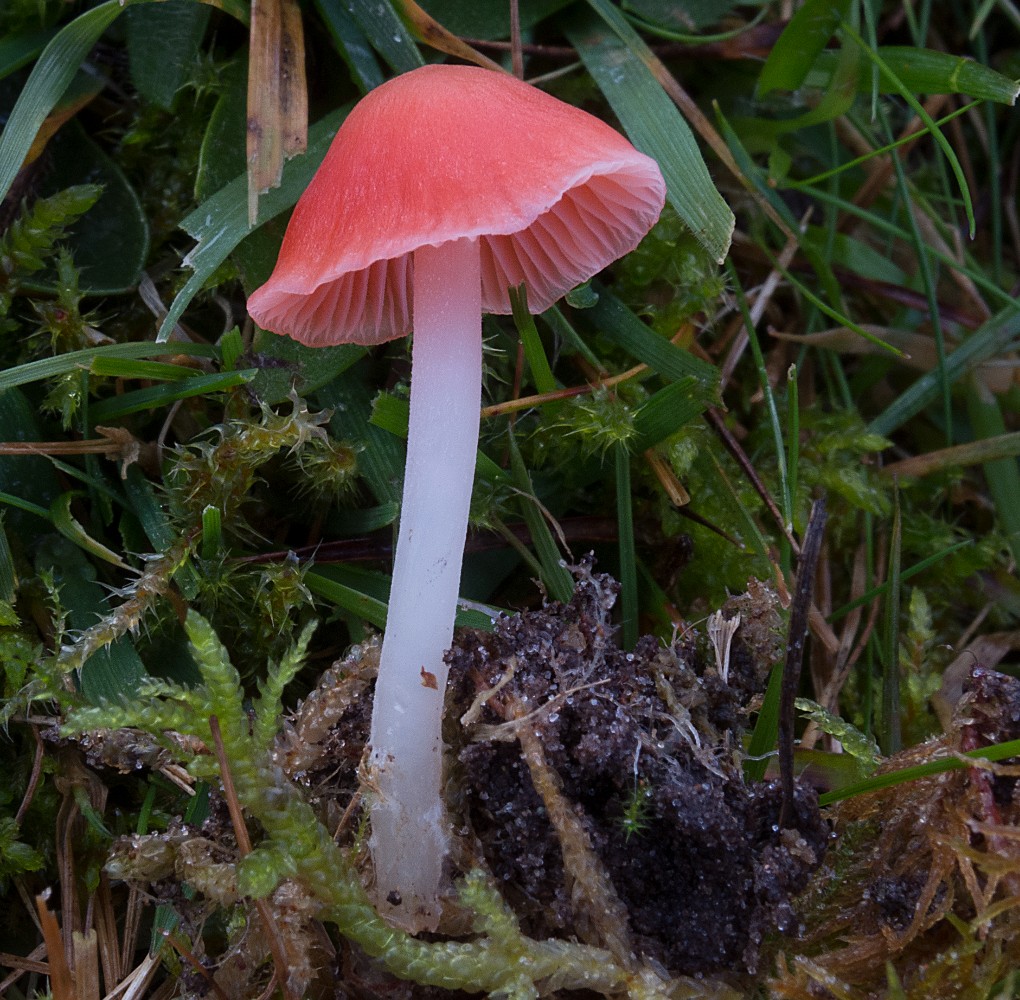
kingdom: Fungi
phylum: Basidiomycota
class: Agaricomycetes
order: Agaricales
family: Mycenaceae
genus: Atheniella
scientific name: Atheniella adonis
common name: rønnerød huesvamp
